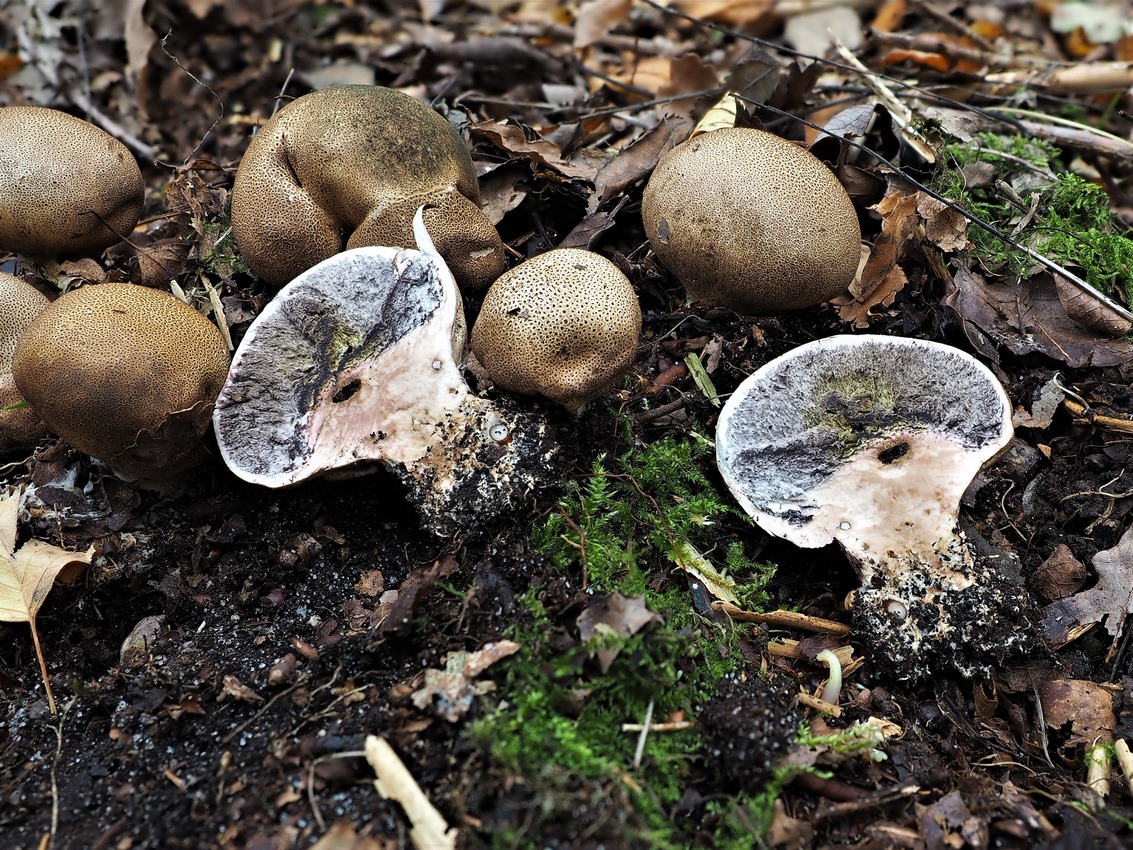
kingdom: Fungi
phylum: Basidiomycota
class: Agaricomycetes
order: Boletales
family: Sclerodermataceae
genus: Scleroderma
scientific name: Scleroderma verrucosum
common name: stilket bruskbold
